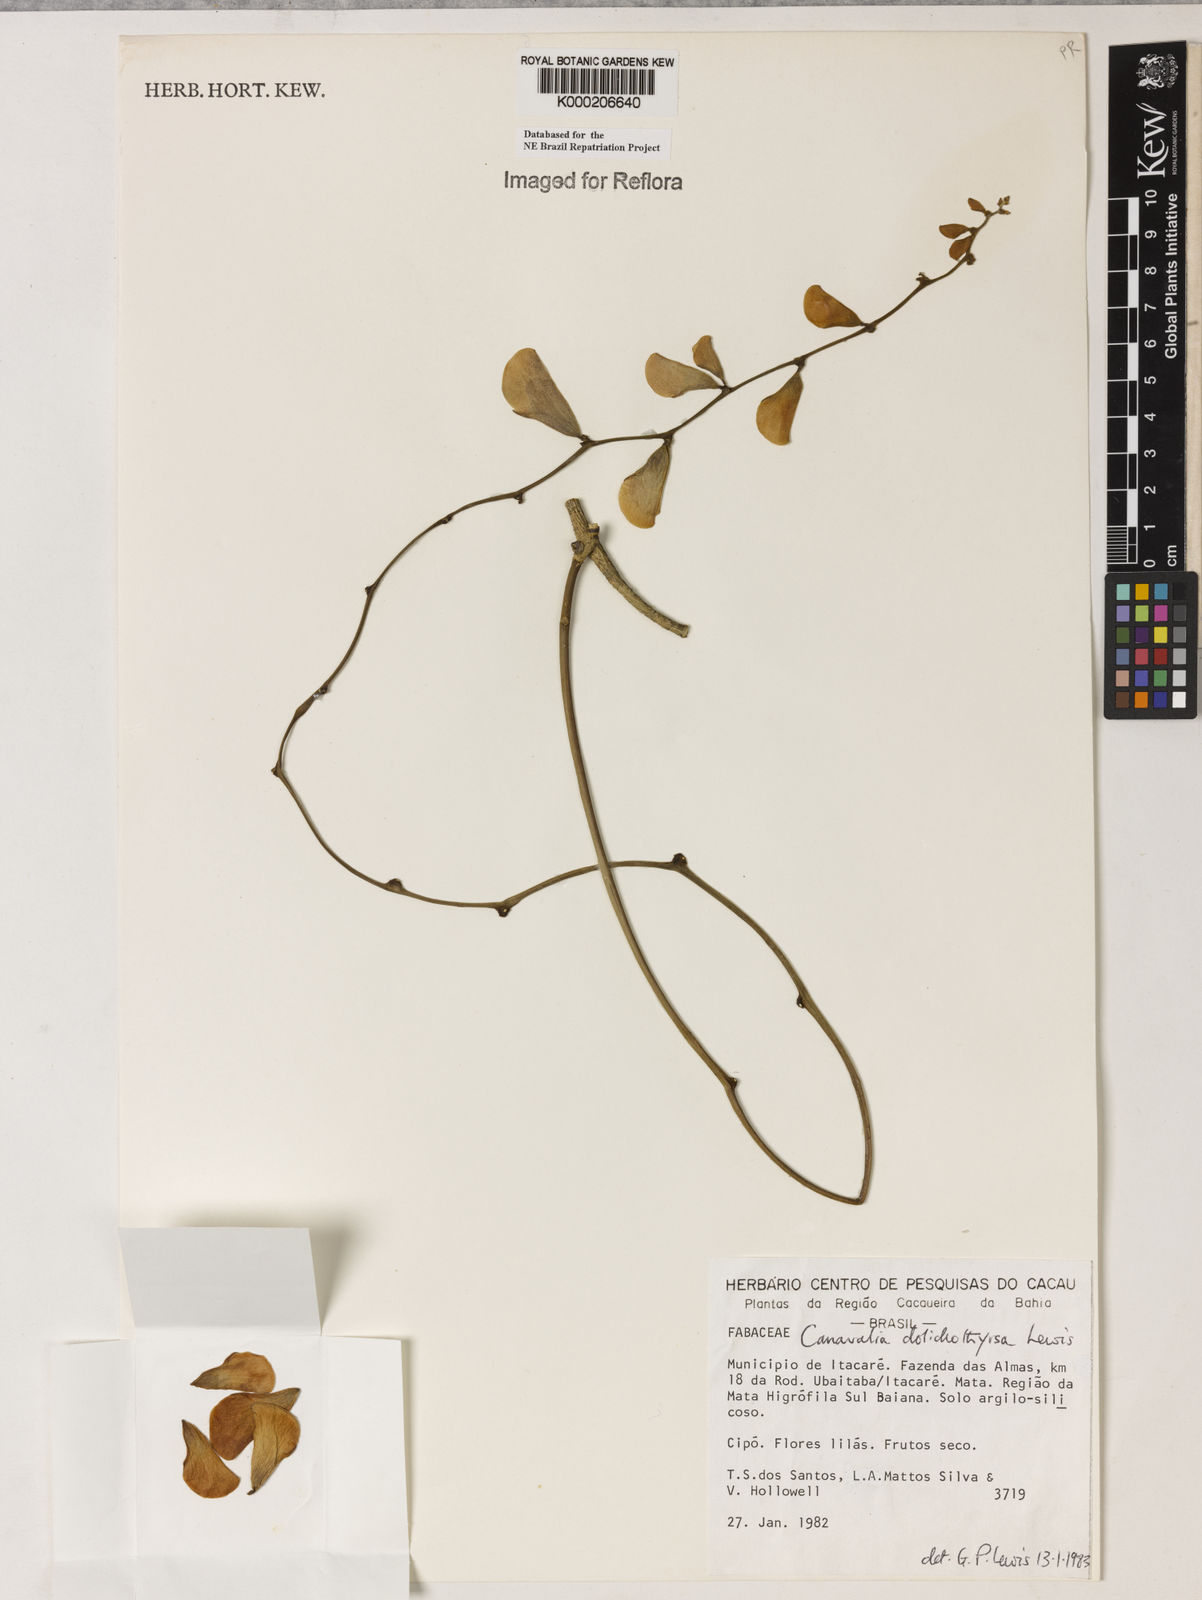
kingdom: Plantae
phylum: Tracheophyta
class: Magnoliopsida
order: Fabales
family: Fabaceae
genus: Canavalia
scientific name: Canavalia dolichothyrsa
